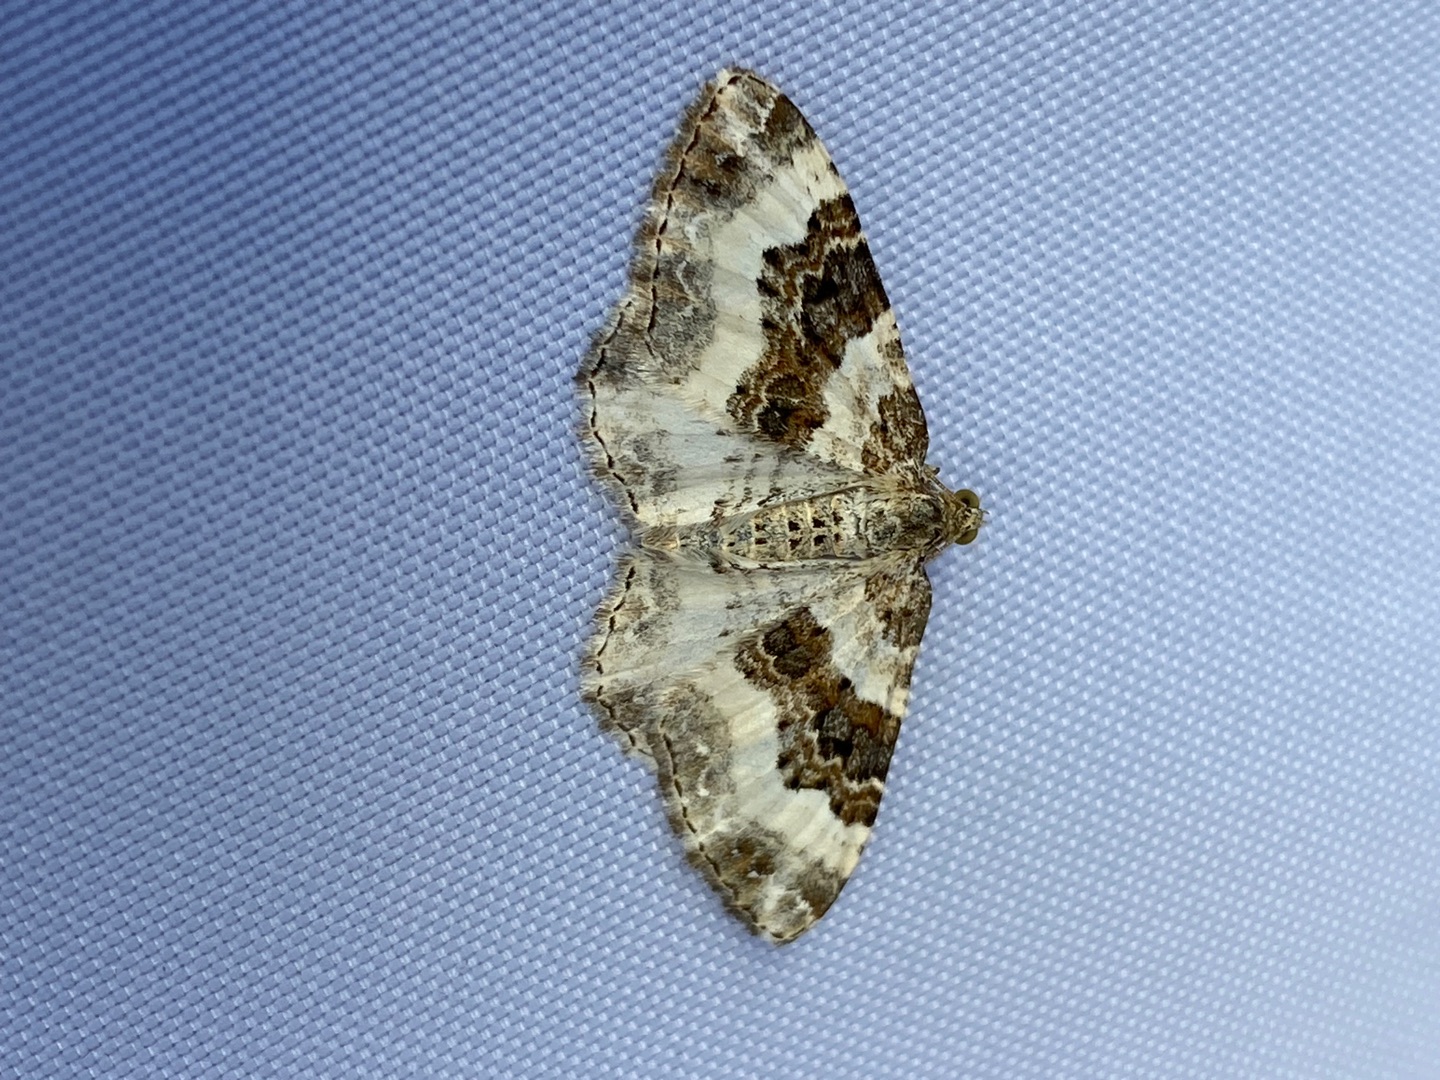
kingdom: Animalia
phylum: Arthropoda
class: Insecta
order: Lepidoptera
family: Geometridae
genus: Epirrhoe
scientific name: Epirrhoe rivata
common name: Hvidbåndet bladmåler
